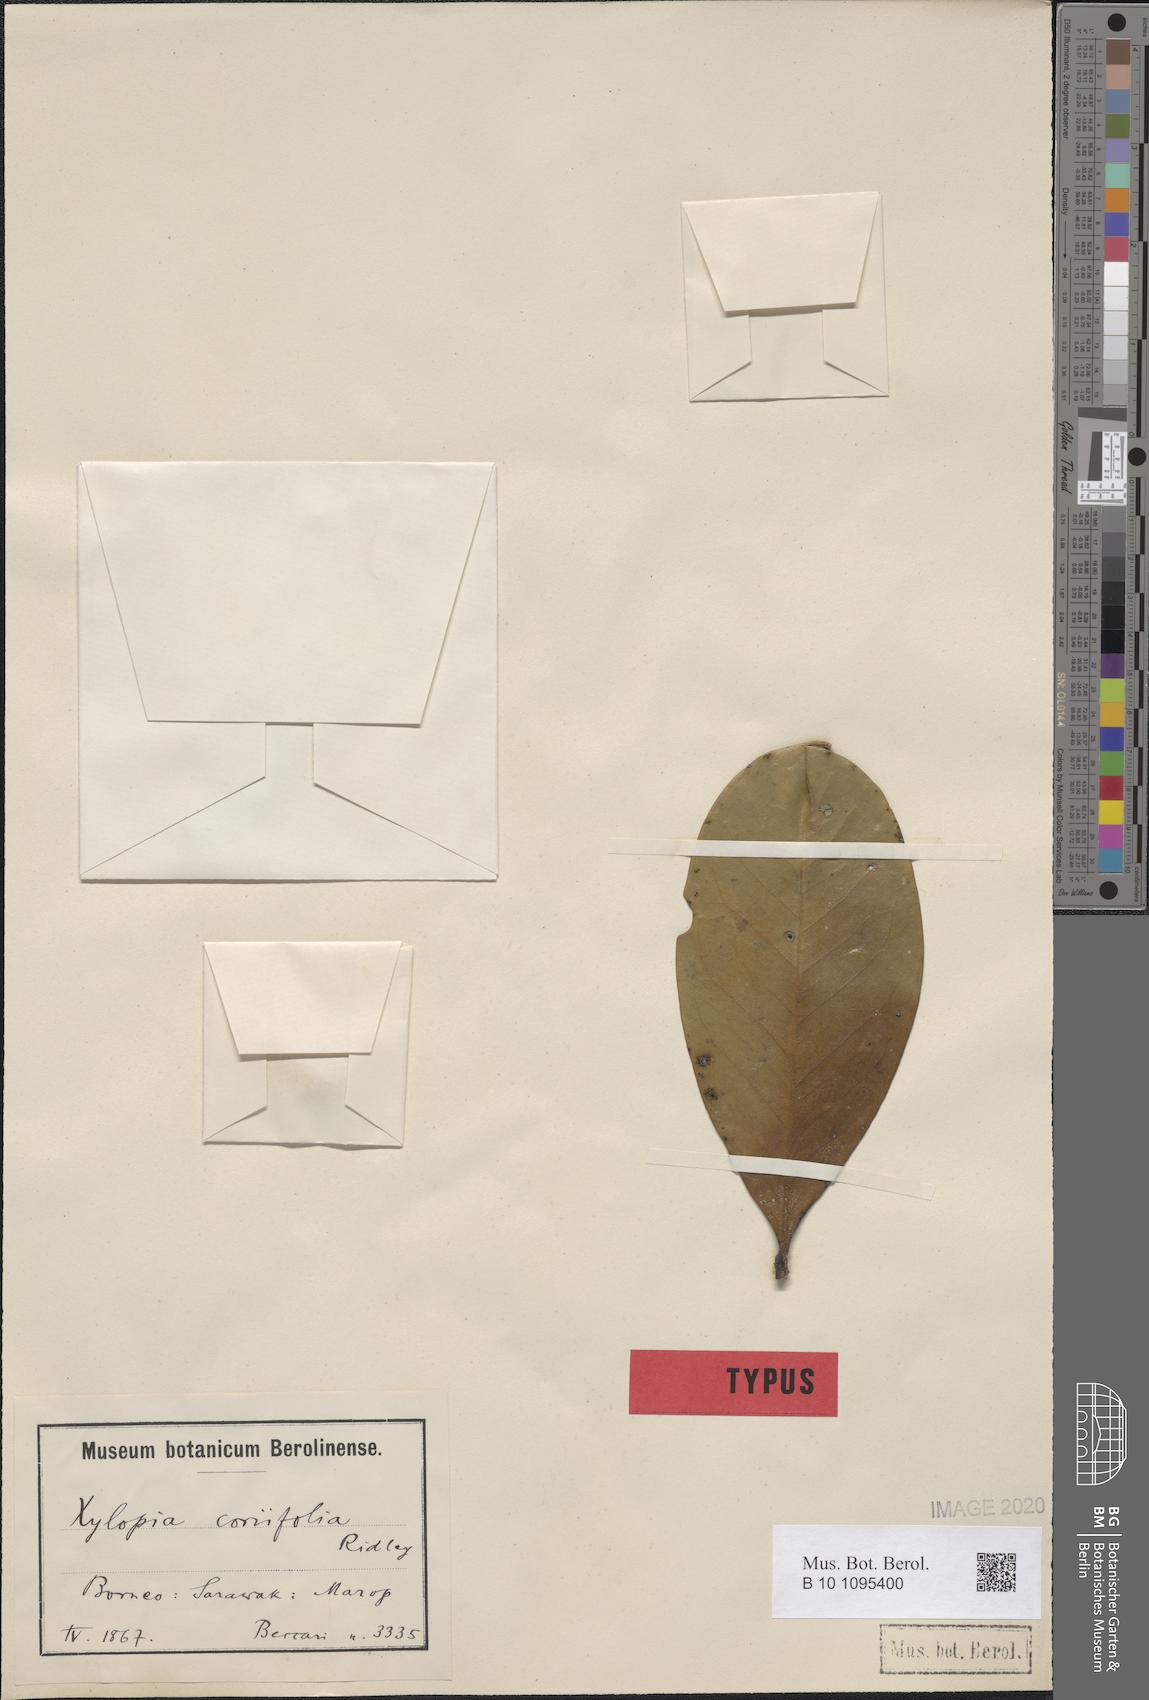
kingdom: Plantae
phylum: Tracheophyta
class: Magnoliopsida
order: Magnoliales
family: Annonaceae
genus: Xylopia
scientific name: Xylopia coriifolia
